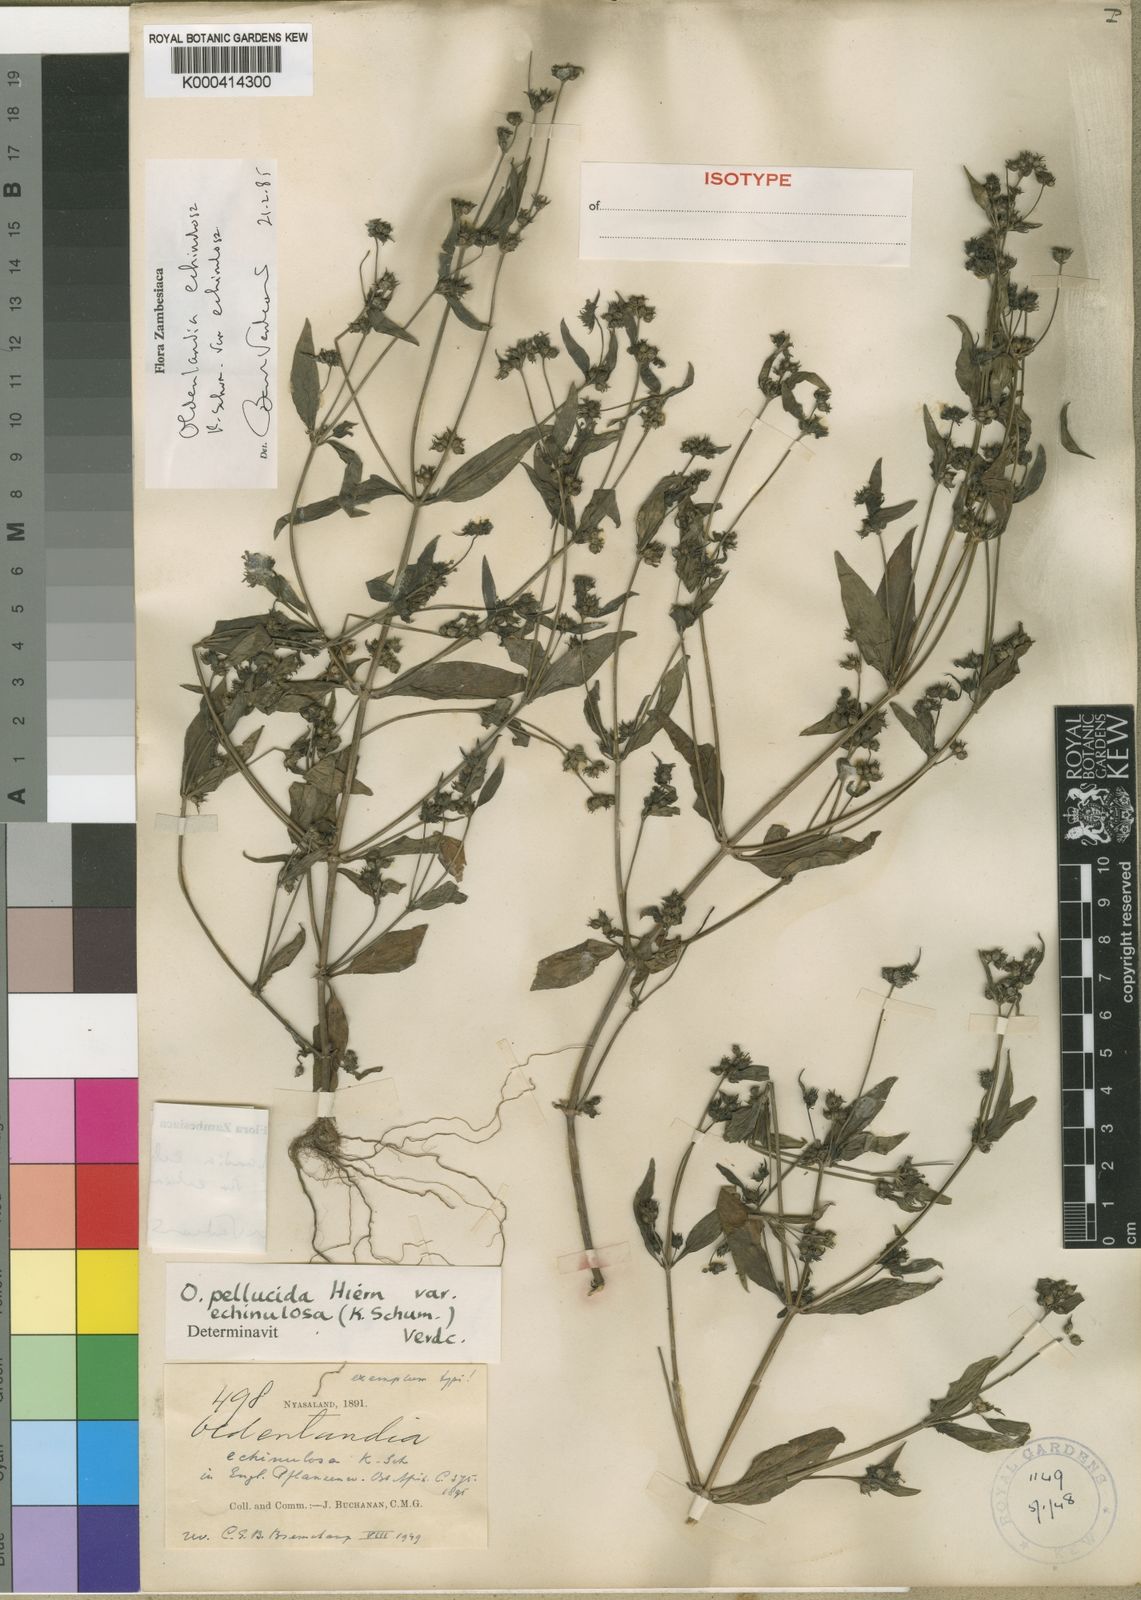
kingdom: Plantae
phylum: Tracheophyta
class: Magnoliopsida
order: Gentianales
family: Rubiaceae
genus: Oldenlandia
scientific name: Oldenlandia echinulosa
